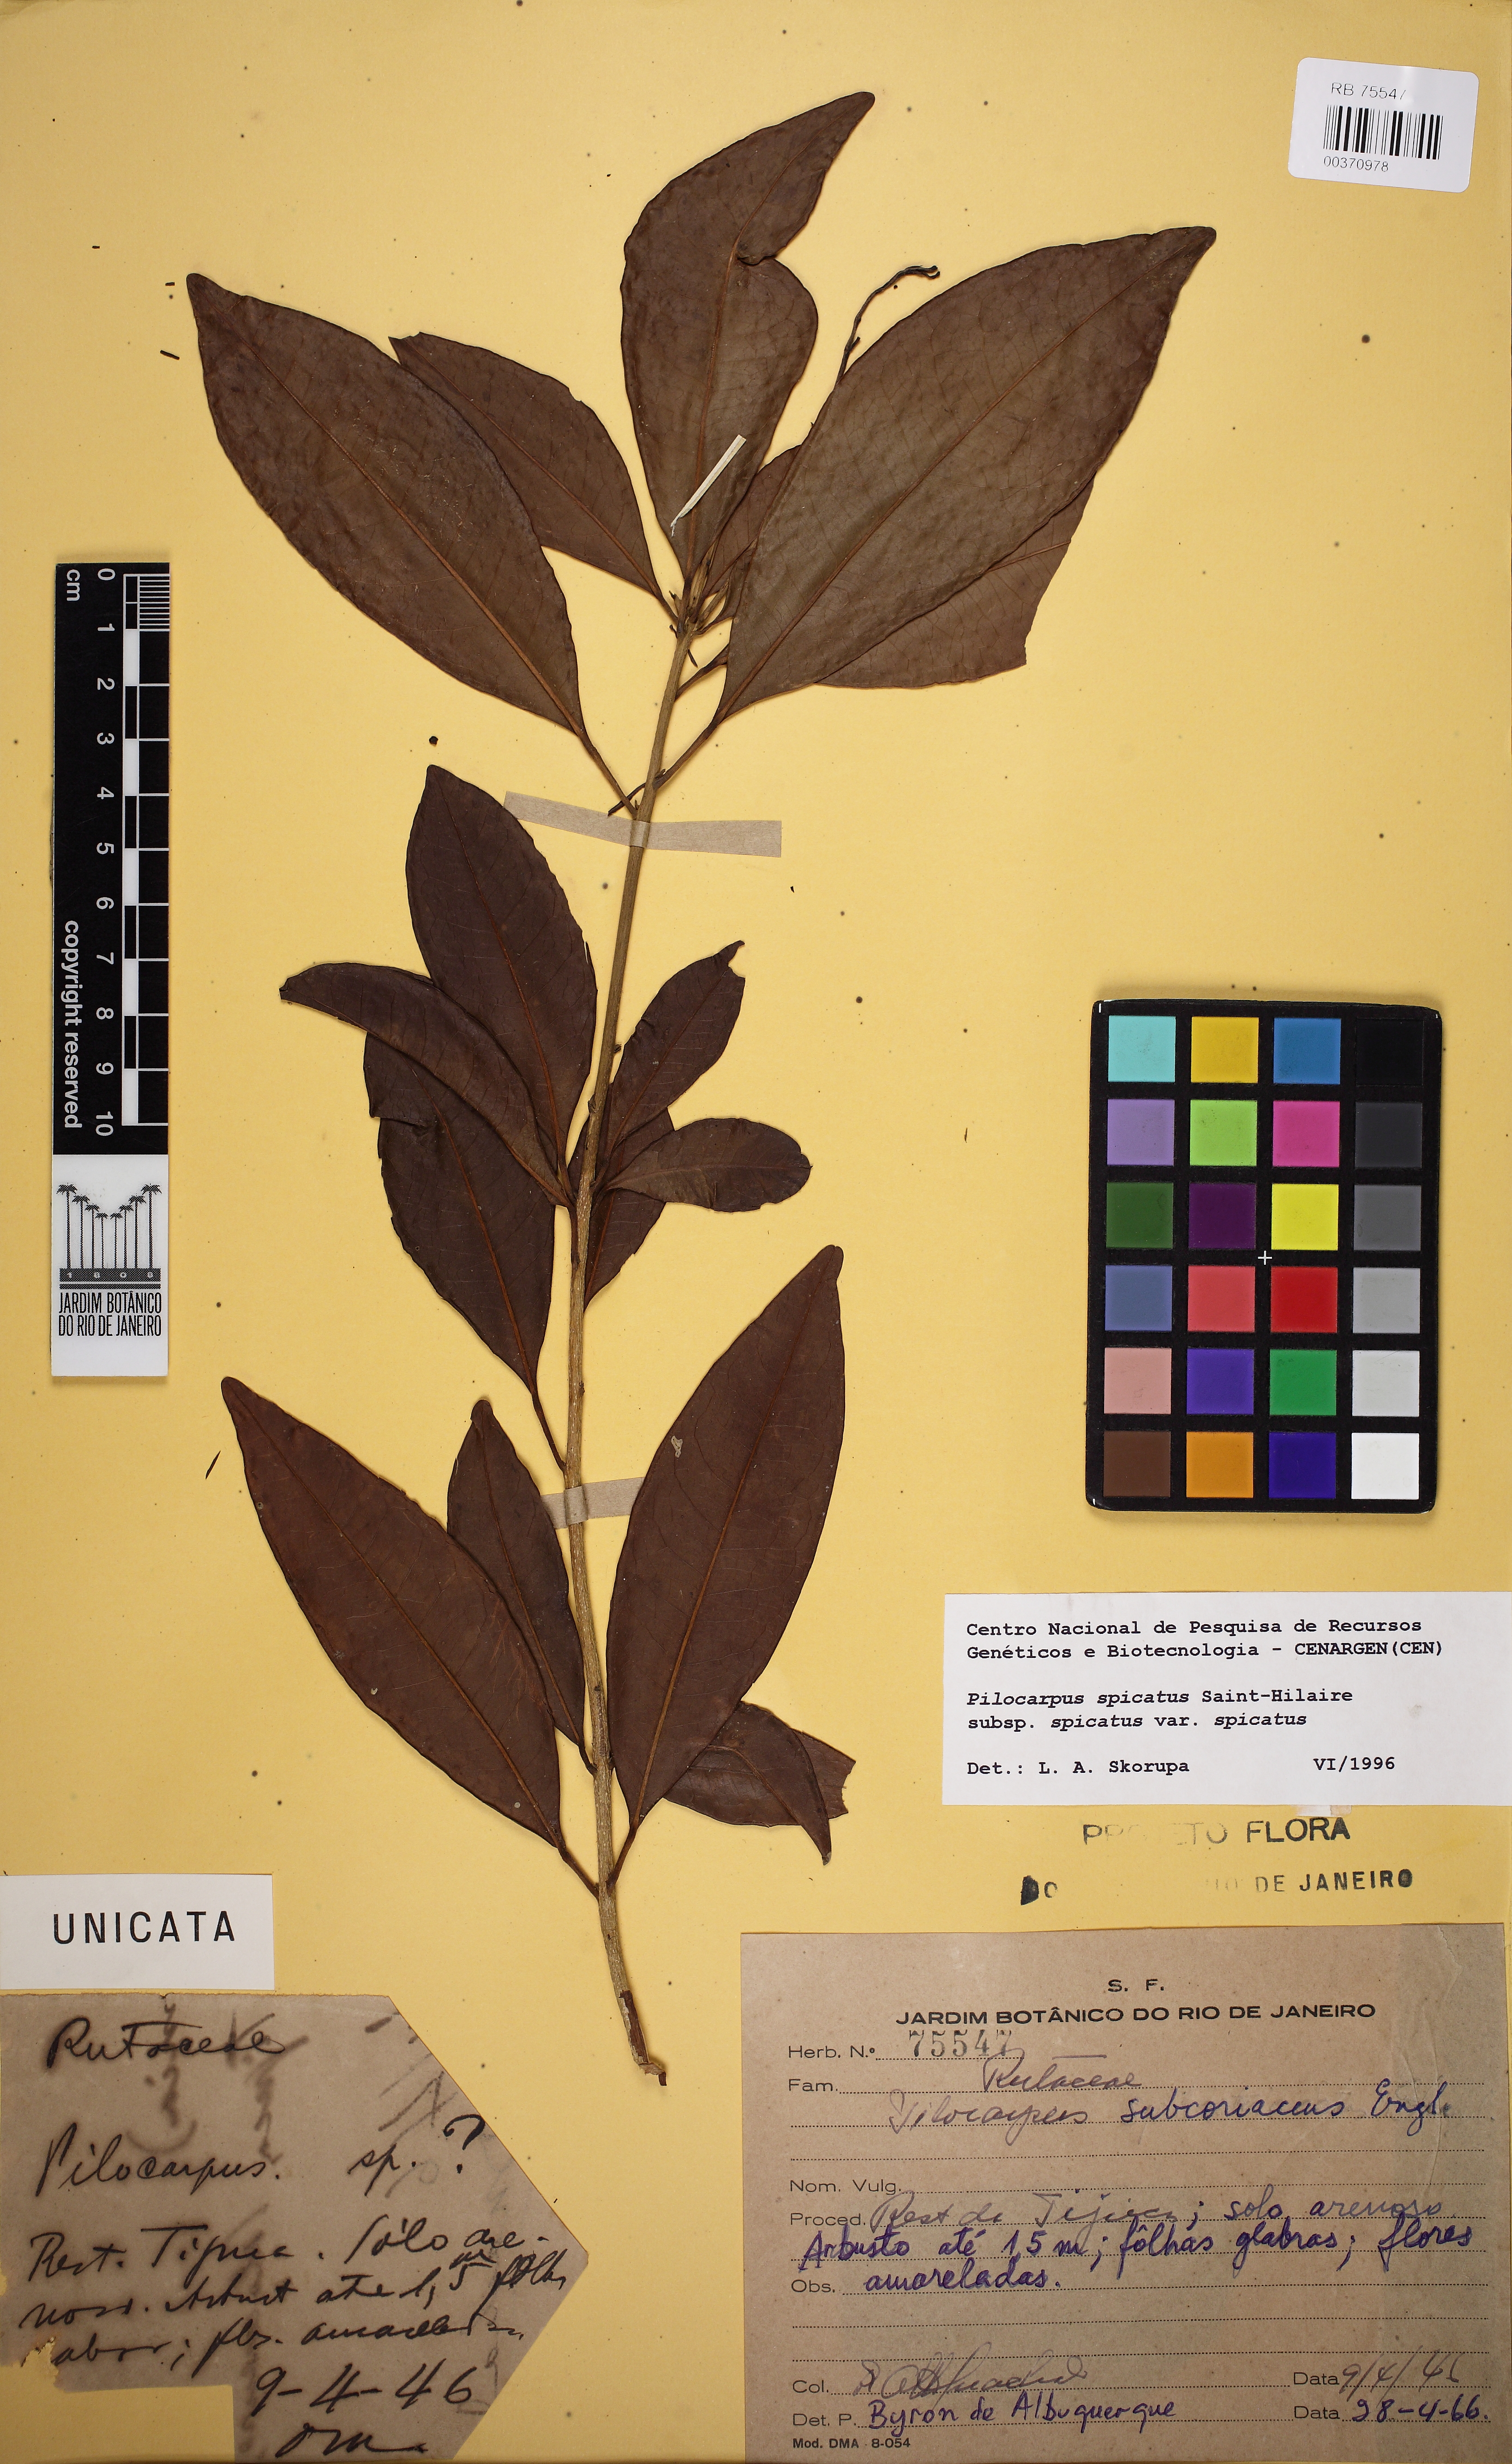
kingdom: Plantae
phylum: Tracheophyta
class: Magnoliopsida
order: Sapindales
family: Rutaceae
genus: Pilocarpus
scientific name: Pilocarpus spicatus
